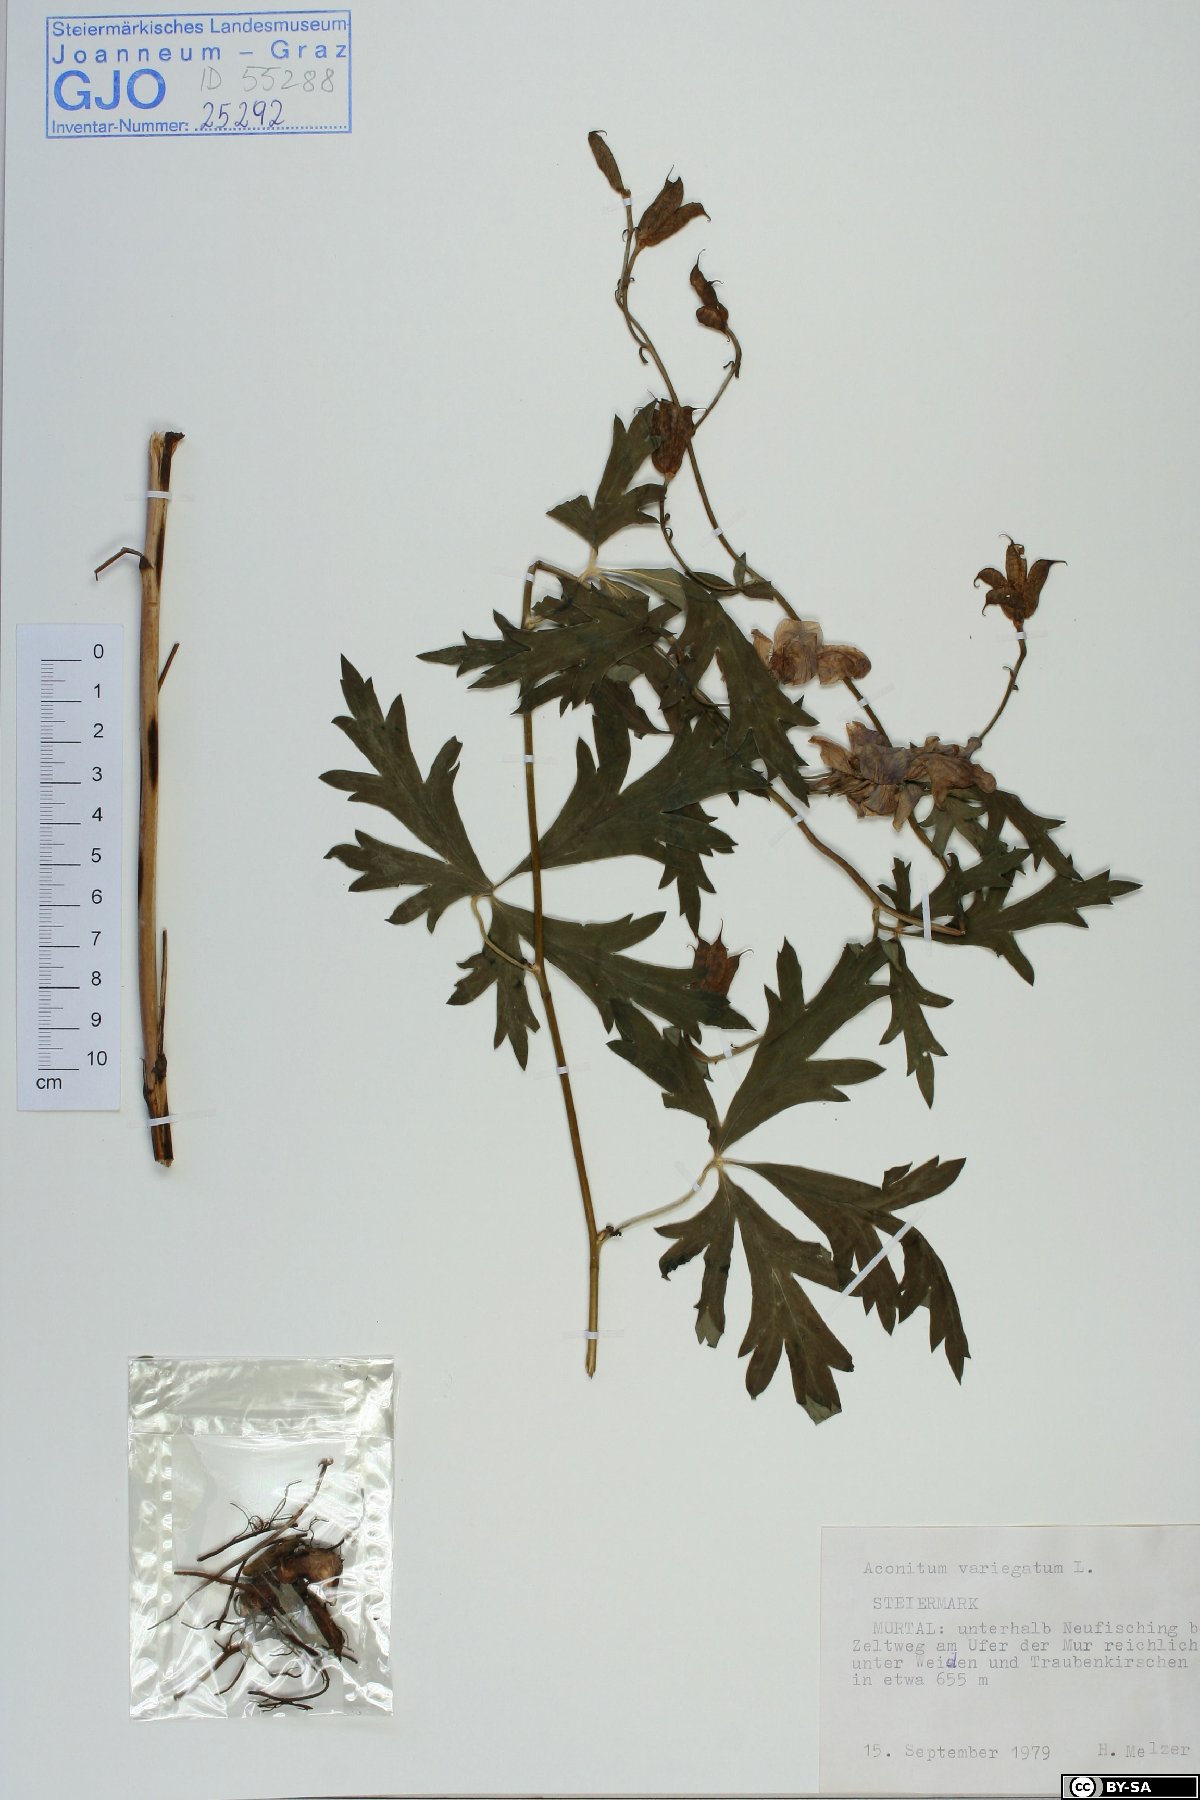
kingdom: Plantae
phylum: Tracheophyta
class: Magnoliopsida
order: Ranunculales
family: Ranunculaceae
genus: Aconitum
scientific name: Aconitum variegatum
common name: Manchurian monkshood
